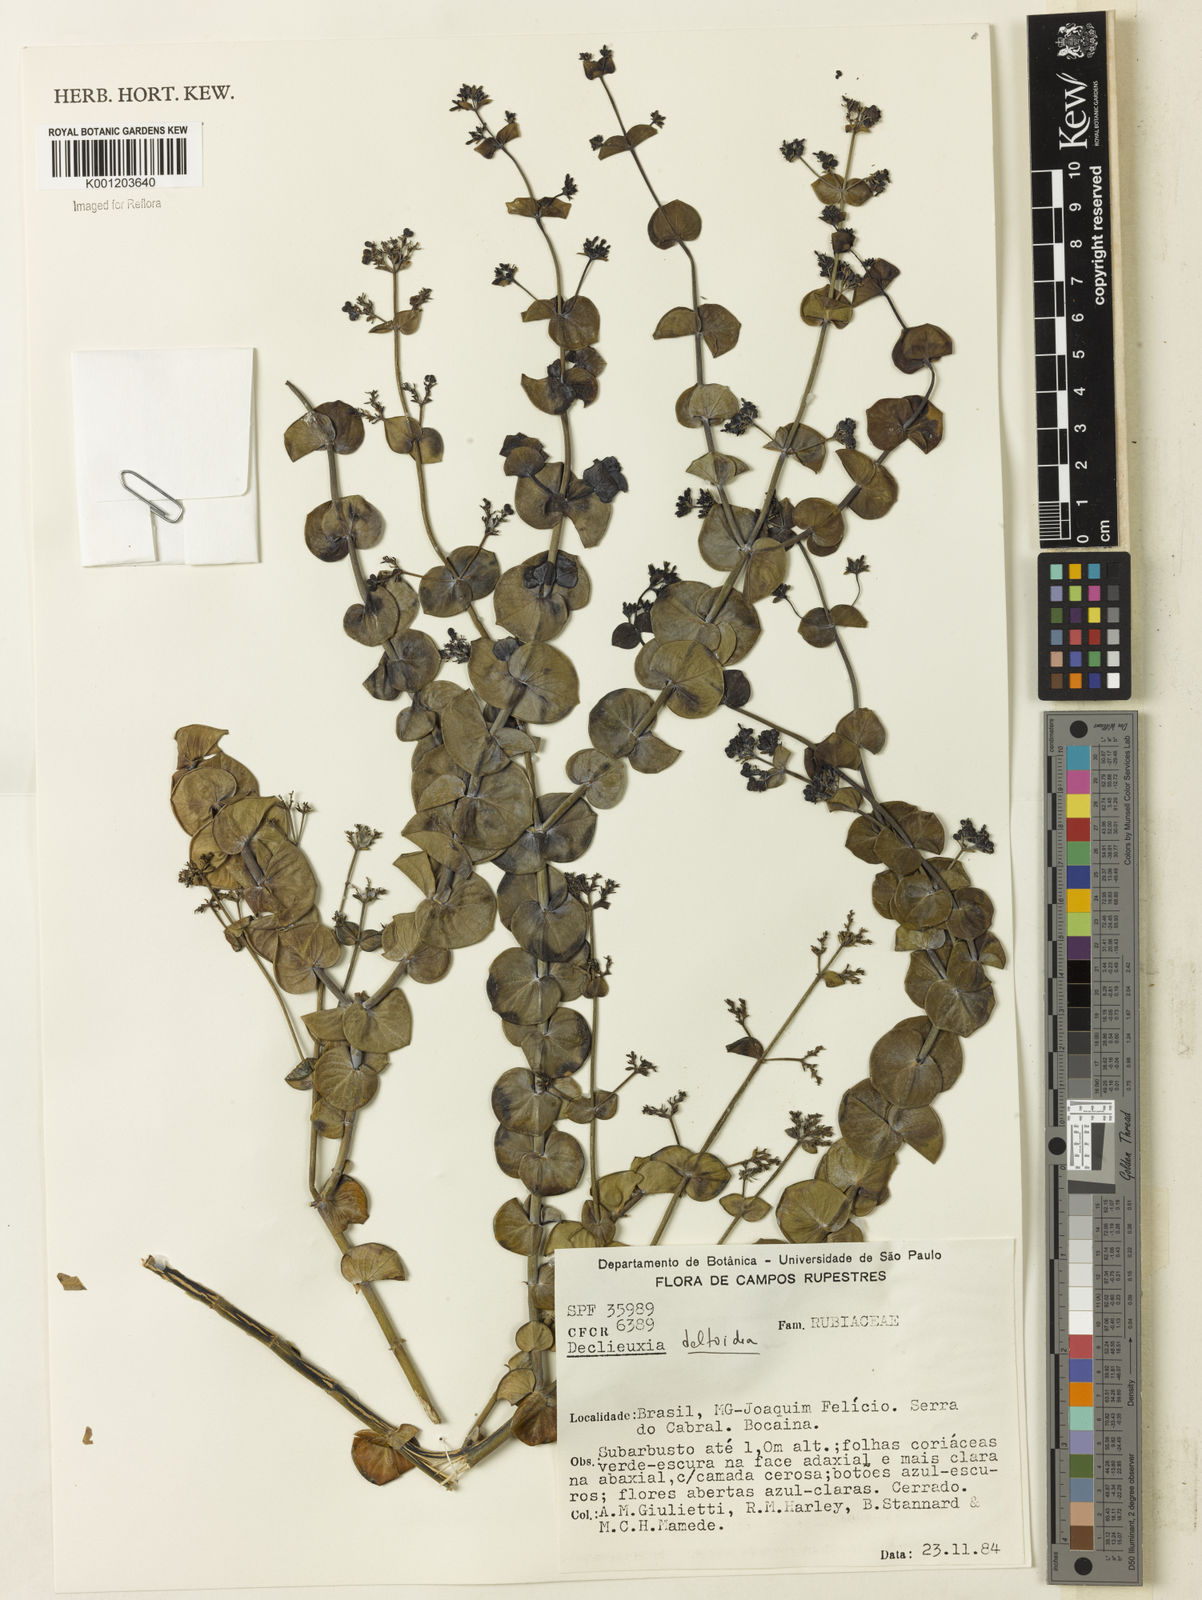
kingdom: Plantae
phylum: Tracheophyta
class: Magnoliopsida
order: Gentianales
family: Rubiaceae
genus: Declieuxia
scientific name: Declieuxia
